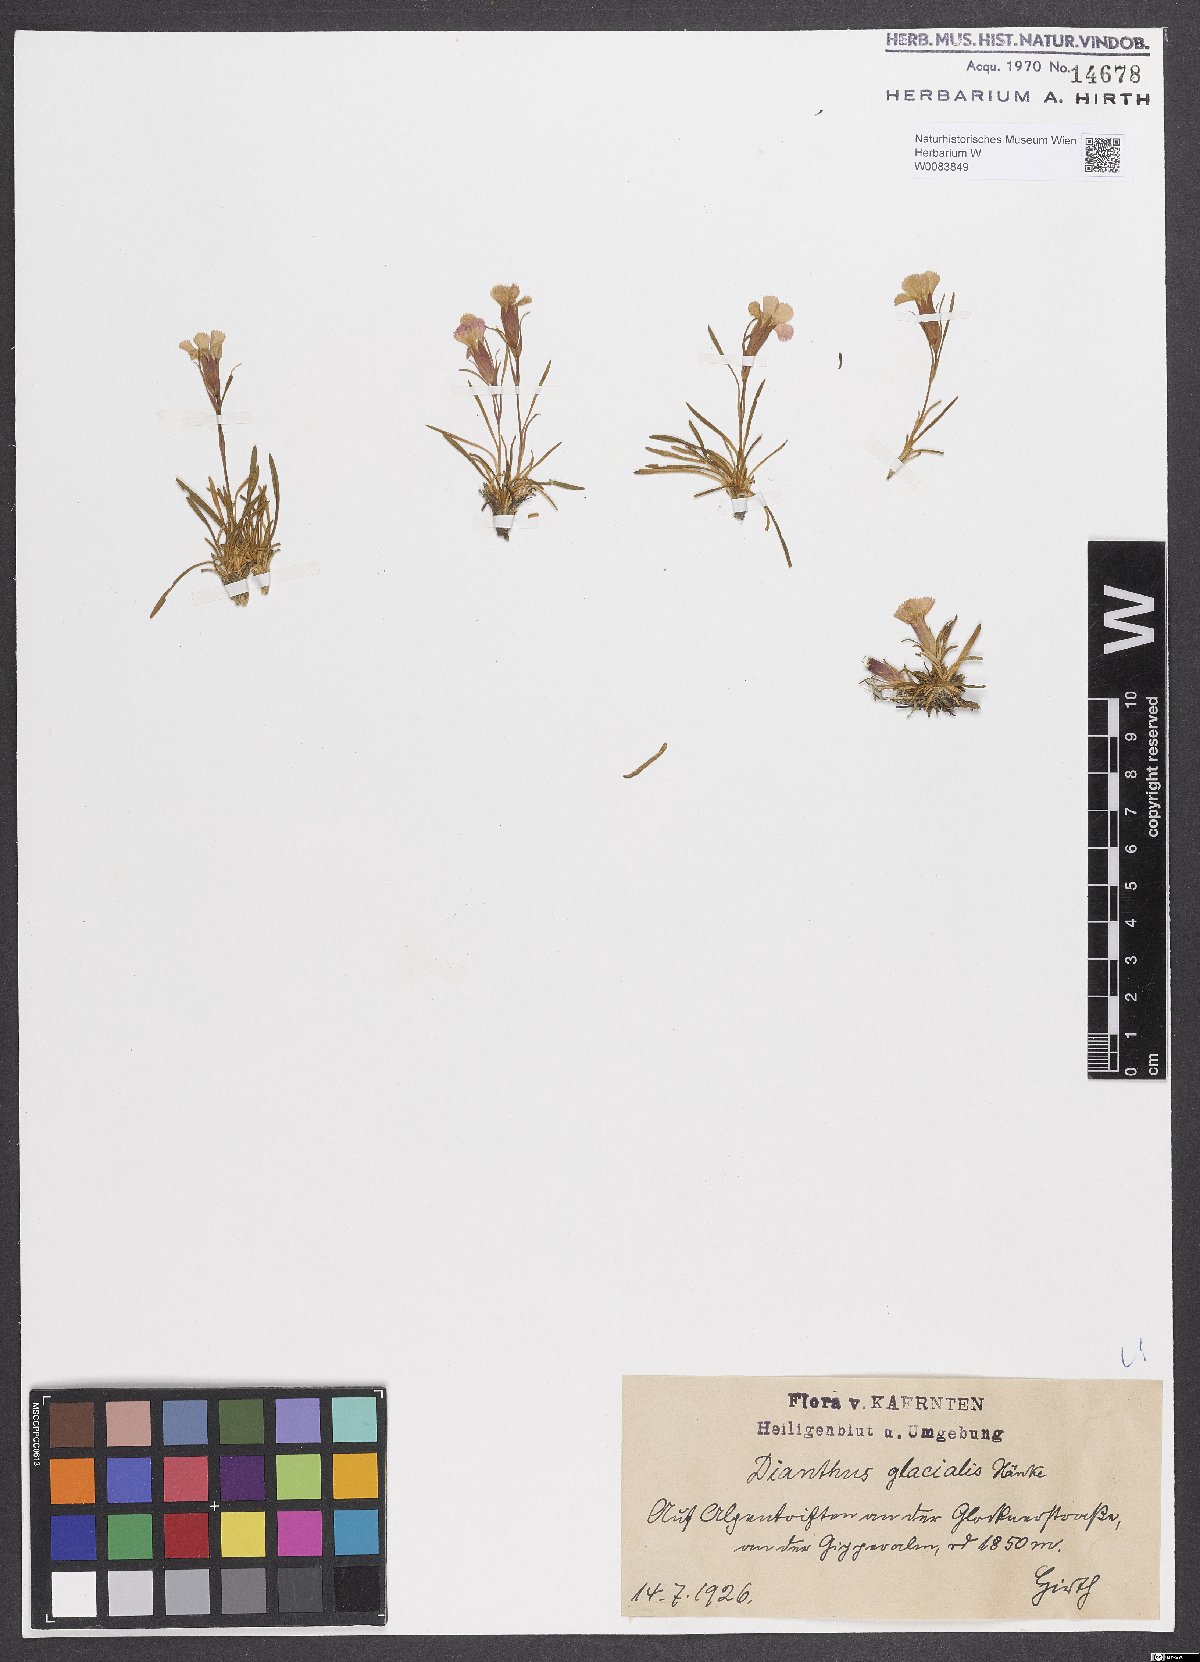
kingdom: Plantae
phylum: Tracheophyta
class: Magnoliopsida
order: Caryophyllales
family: Caryophyllaceae
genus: Dianthus
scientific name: Dianthus glacialis
